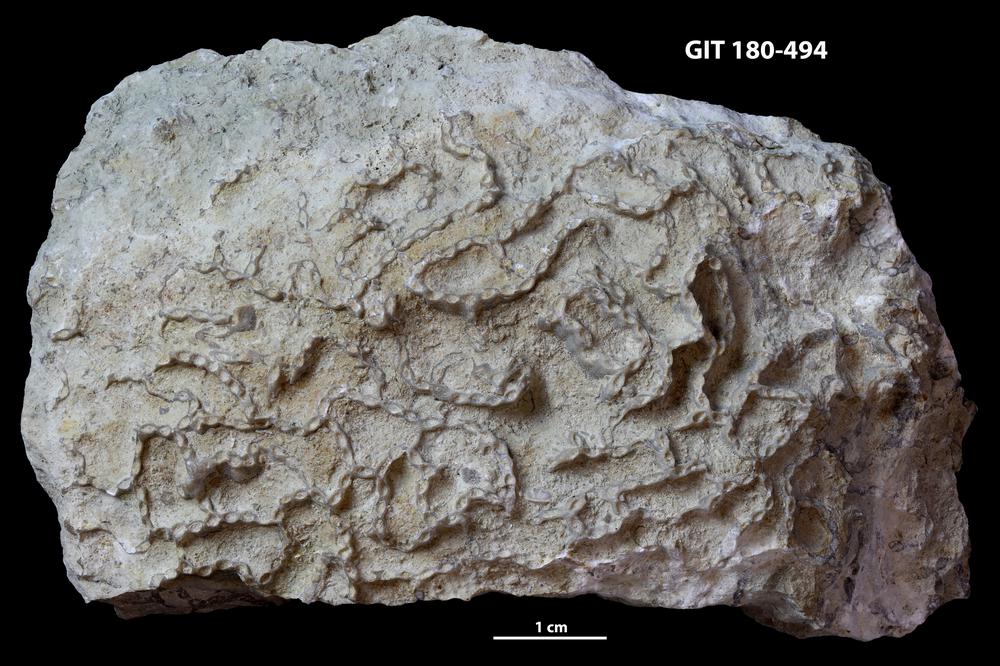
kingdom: Animalia
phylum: Cnidaria
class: Anthozoa
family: Cateniporidae
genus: Catenipora
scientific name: Catenipora tapaensis
